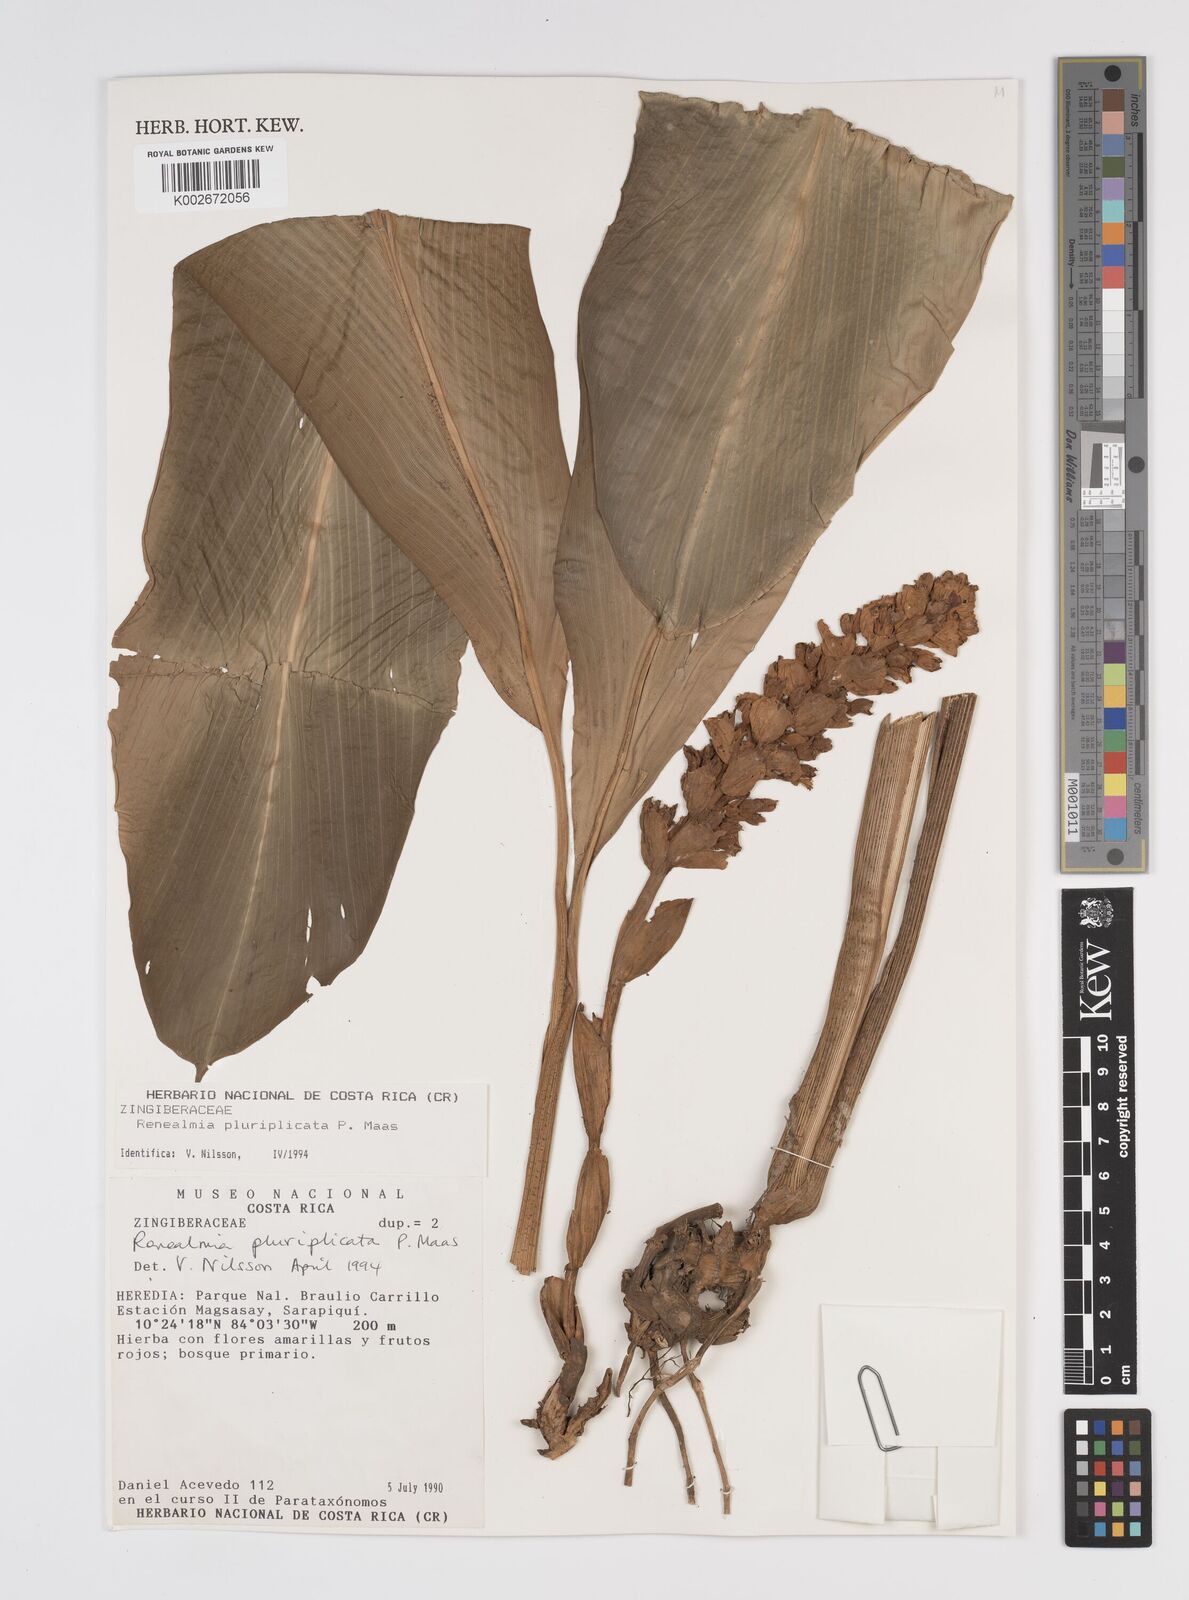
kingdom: Plantae
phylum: Tracheophyta
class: Liliopsida
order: Zingiberales
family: Zingiberaceae
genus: Renealmia
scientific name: Renealmia pluriplicata
